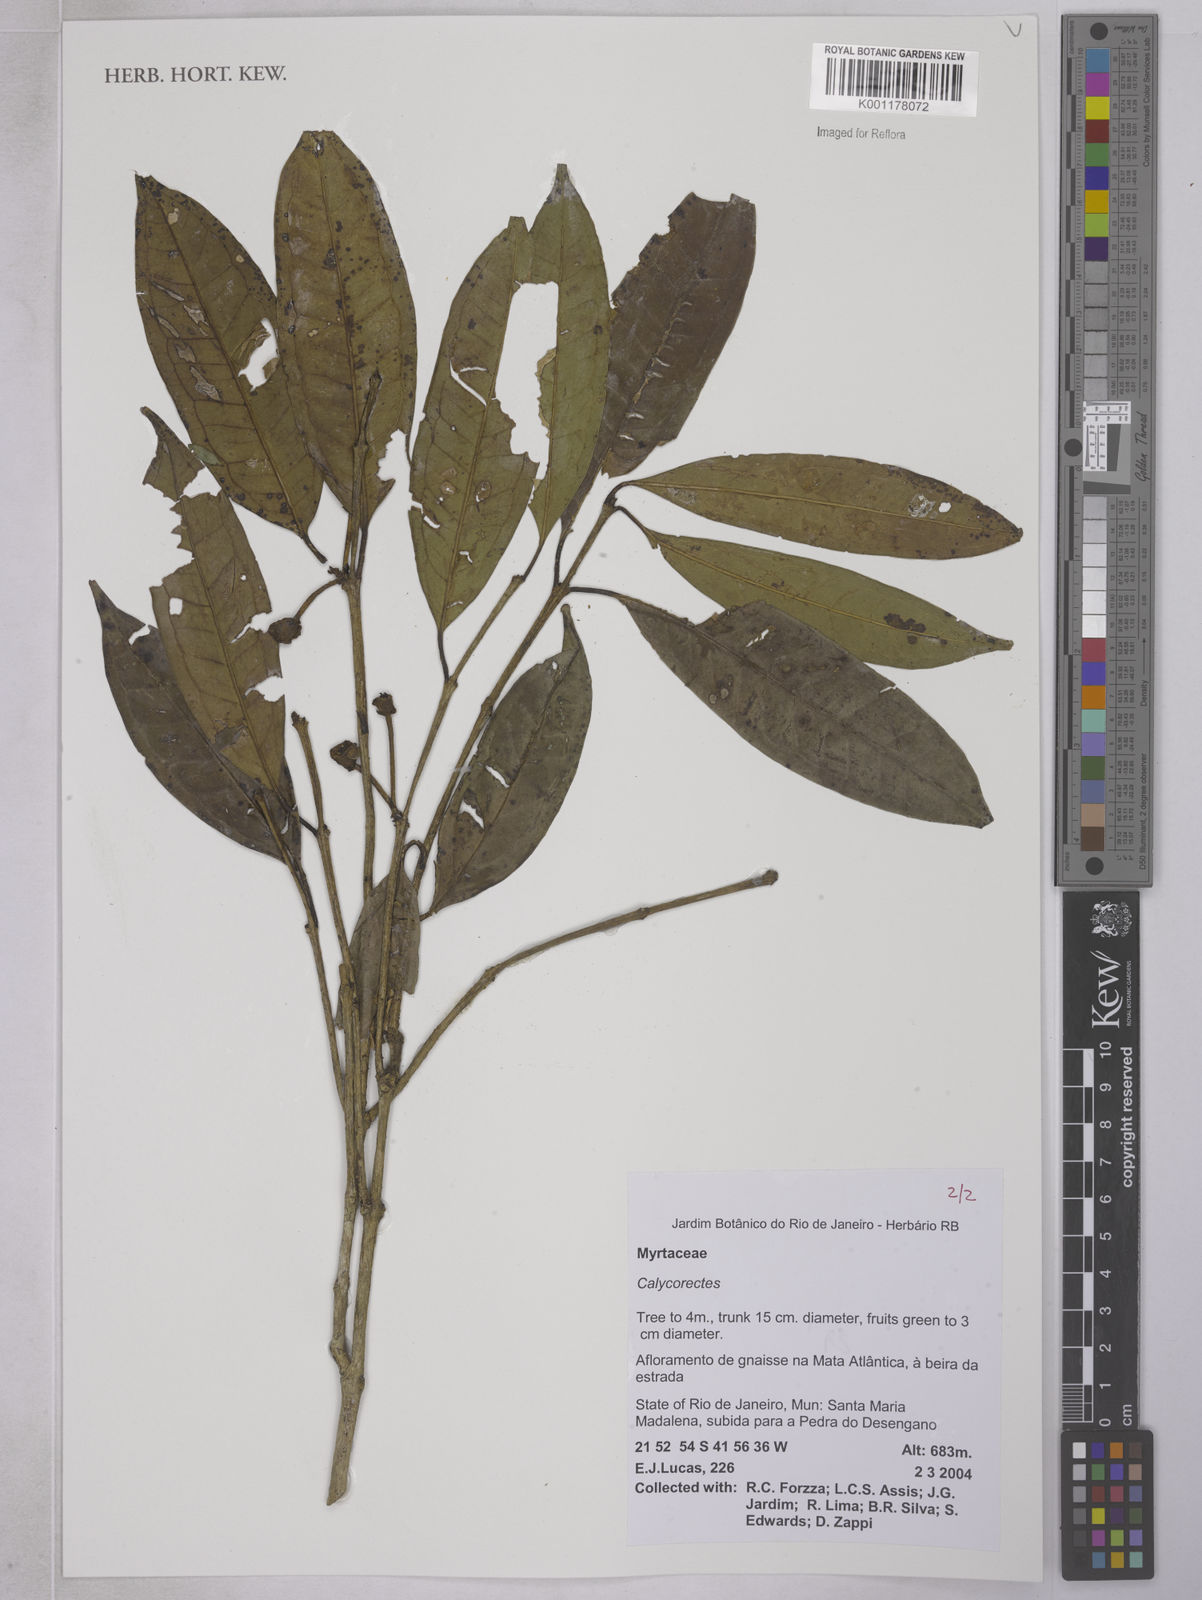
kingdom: Plantae
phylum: Tracheophyta
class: Magnoliopsida
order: Myrtales
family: Myrtaceae
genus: Eugenia
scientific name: Eugenia brevistyla
